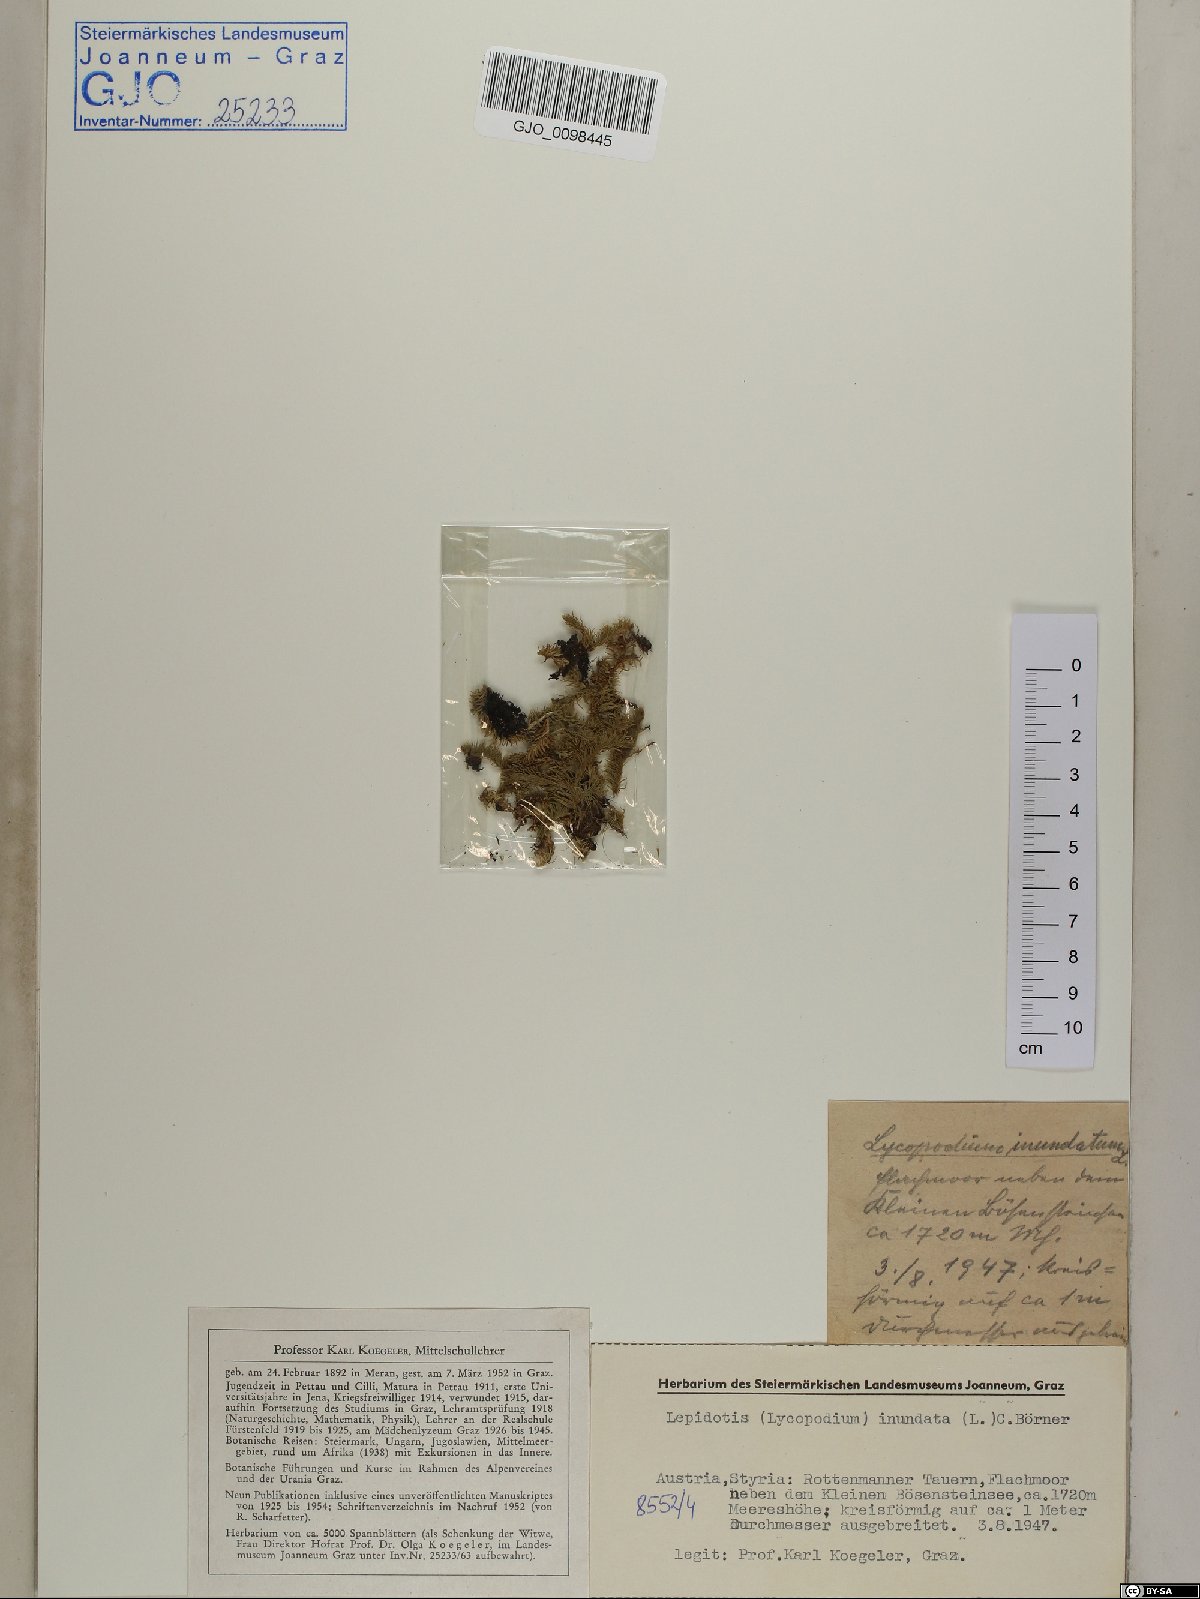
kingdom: Plantae
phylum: Tracheophyta
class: Lycopodiopsida
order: Lycopodiales
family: Lycopodiaceae
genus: Lycopodiella
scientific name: Lycopodiella inundata
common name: Marsh clubmoss
